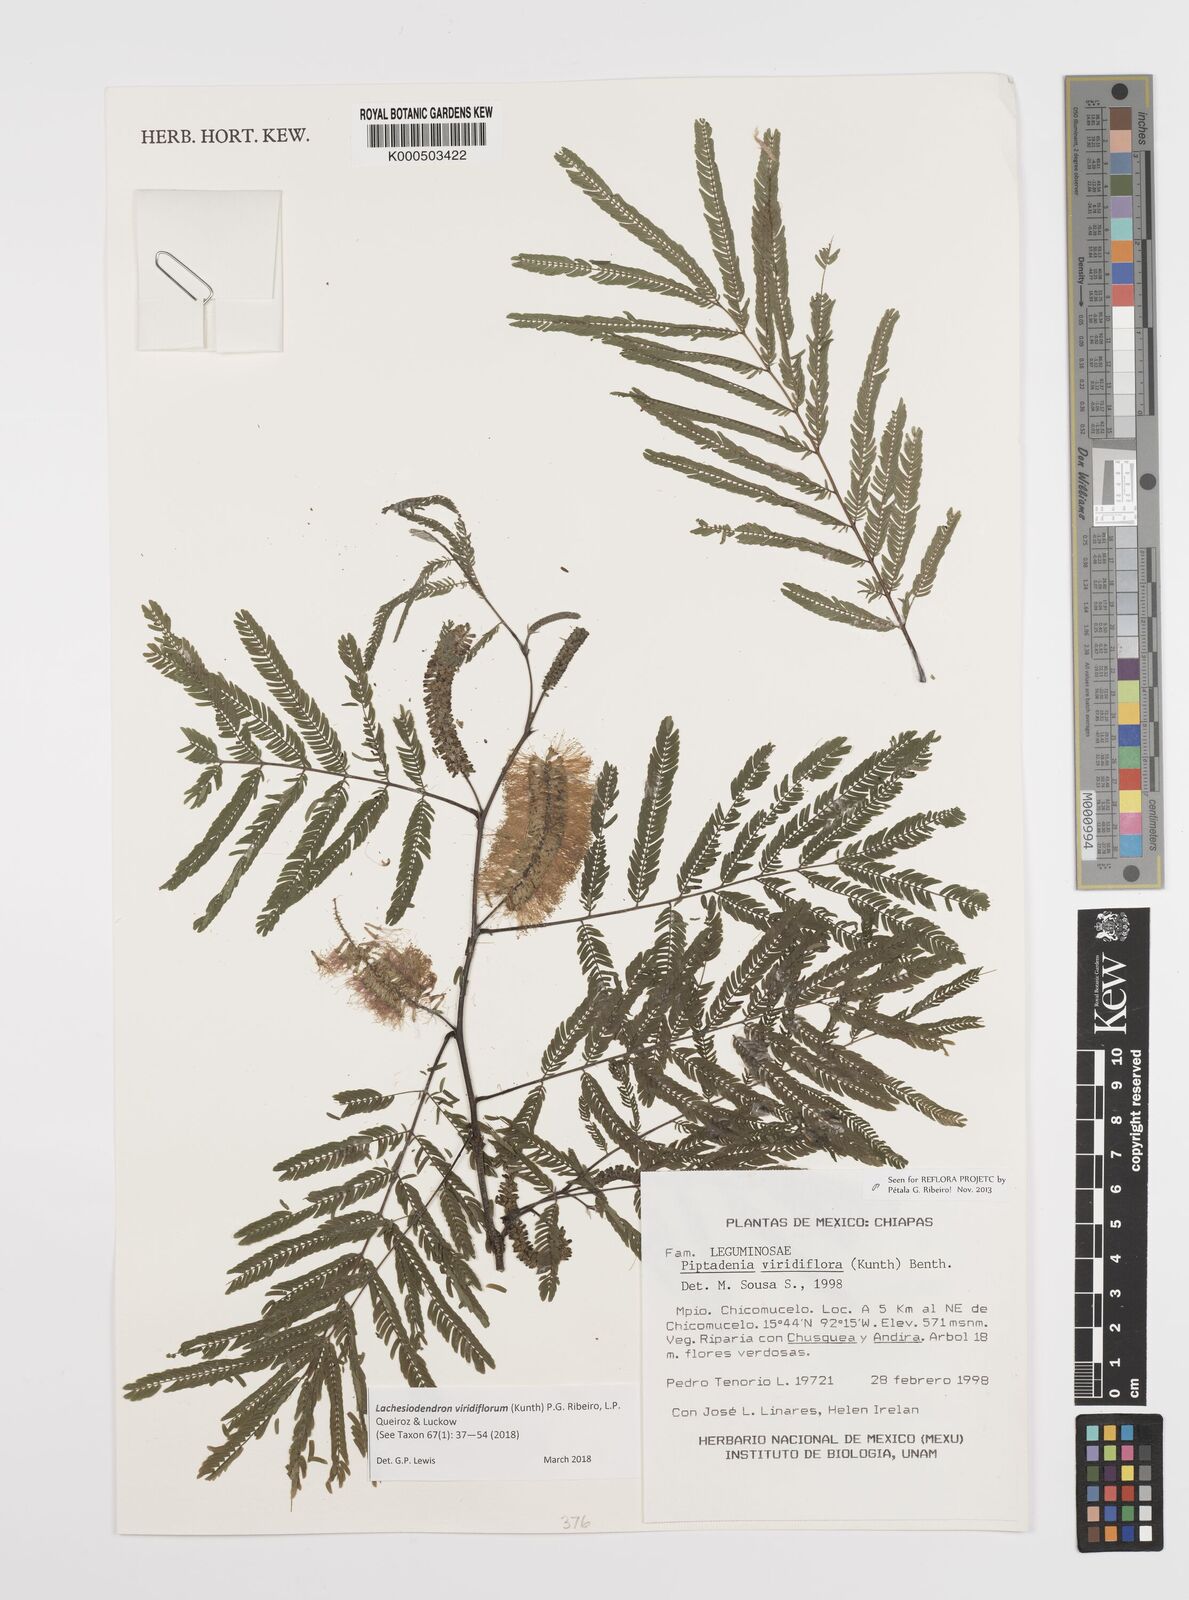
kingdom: Plantae
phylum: Tracheophyta
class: Magnoliopsida
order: Fabales
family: Fabaceae
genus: Lachesiodendron
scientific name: Lachesiodendron viridiflorum
